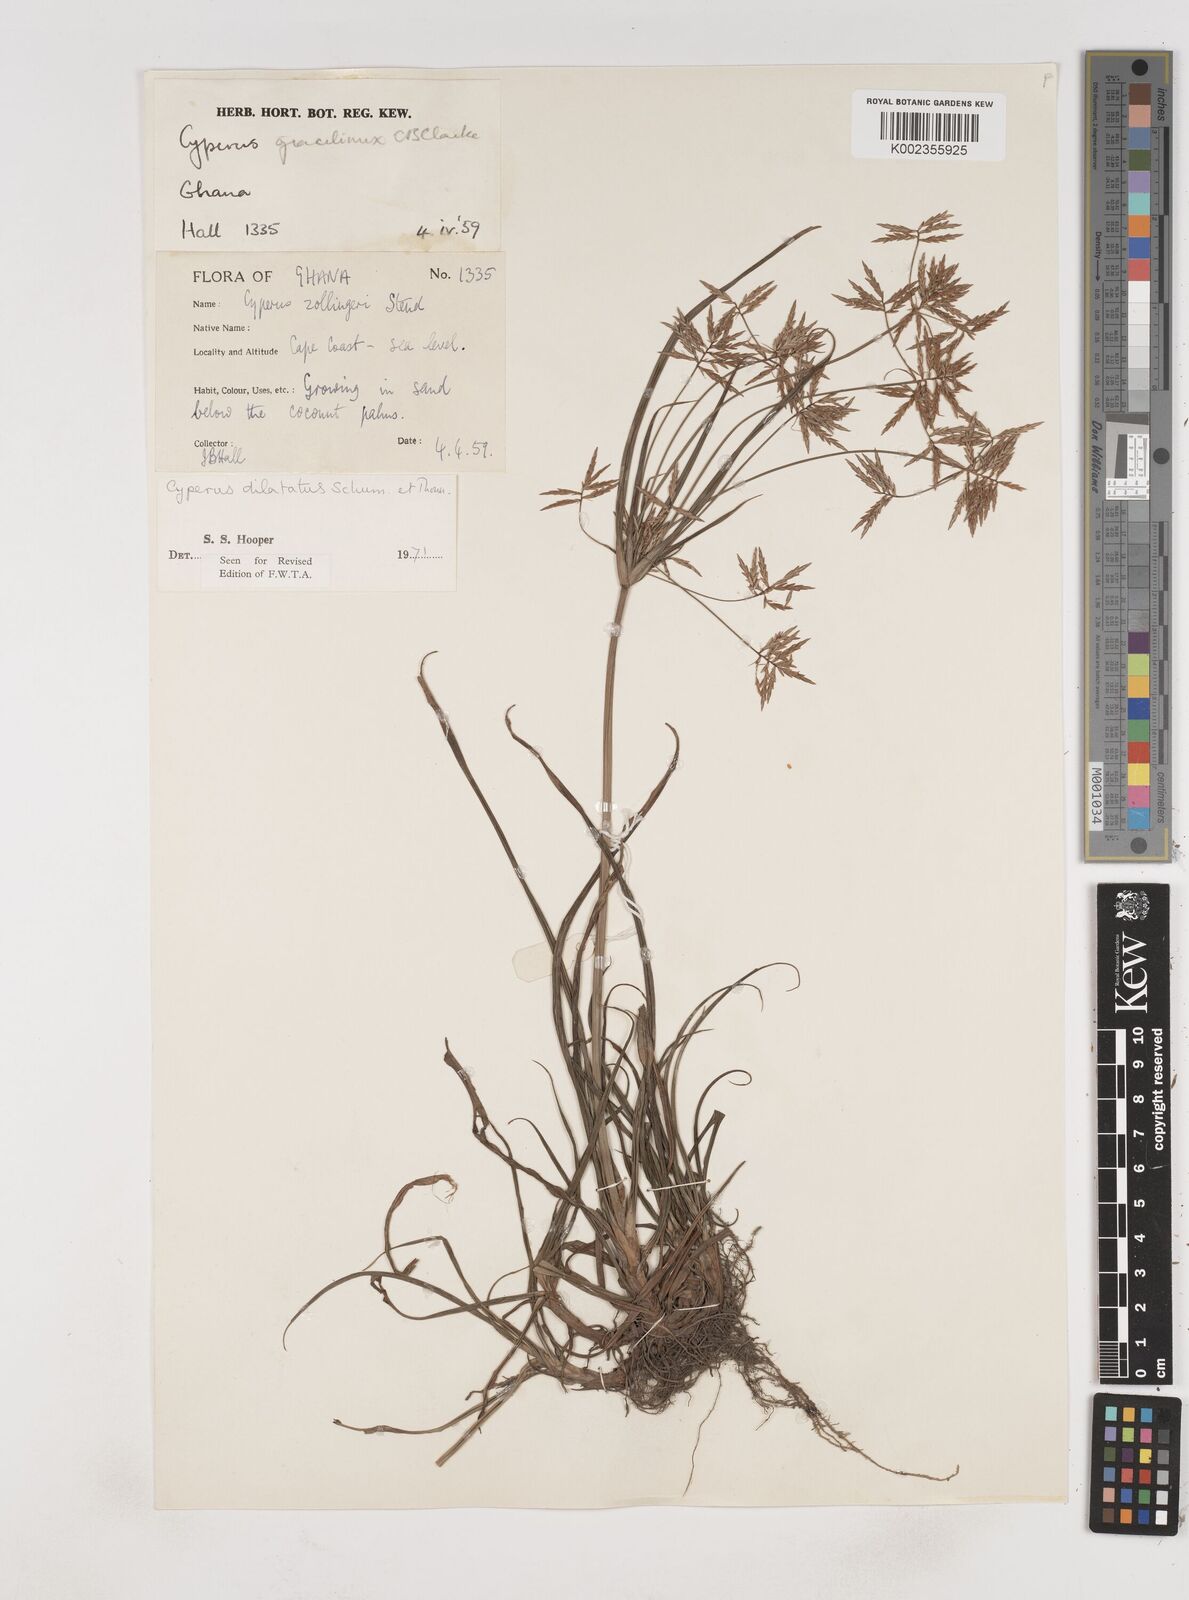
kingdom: Plantae
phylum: Tracheophyta
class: Liliopsida
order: Poales
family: Cyperaceae
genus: Cyperus
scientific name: Cyperus dilatatus
